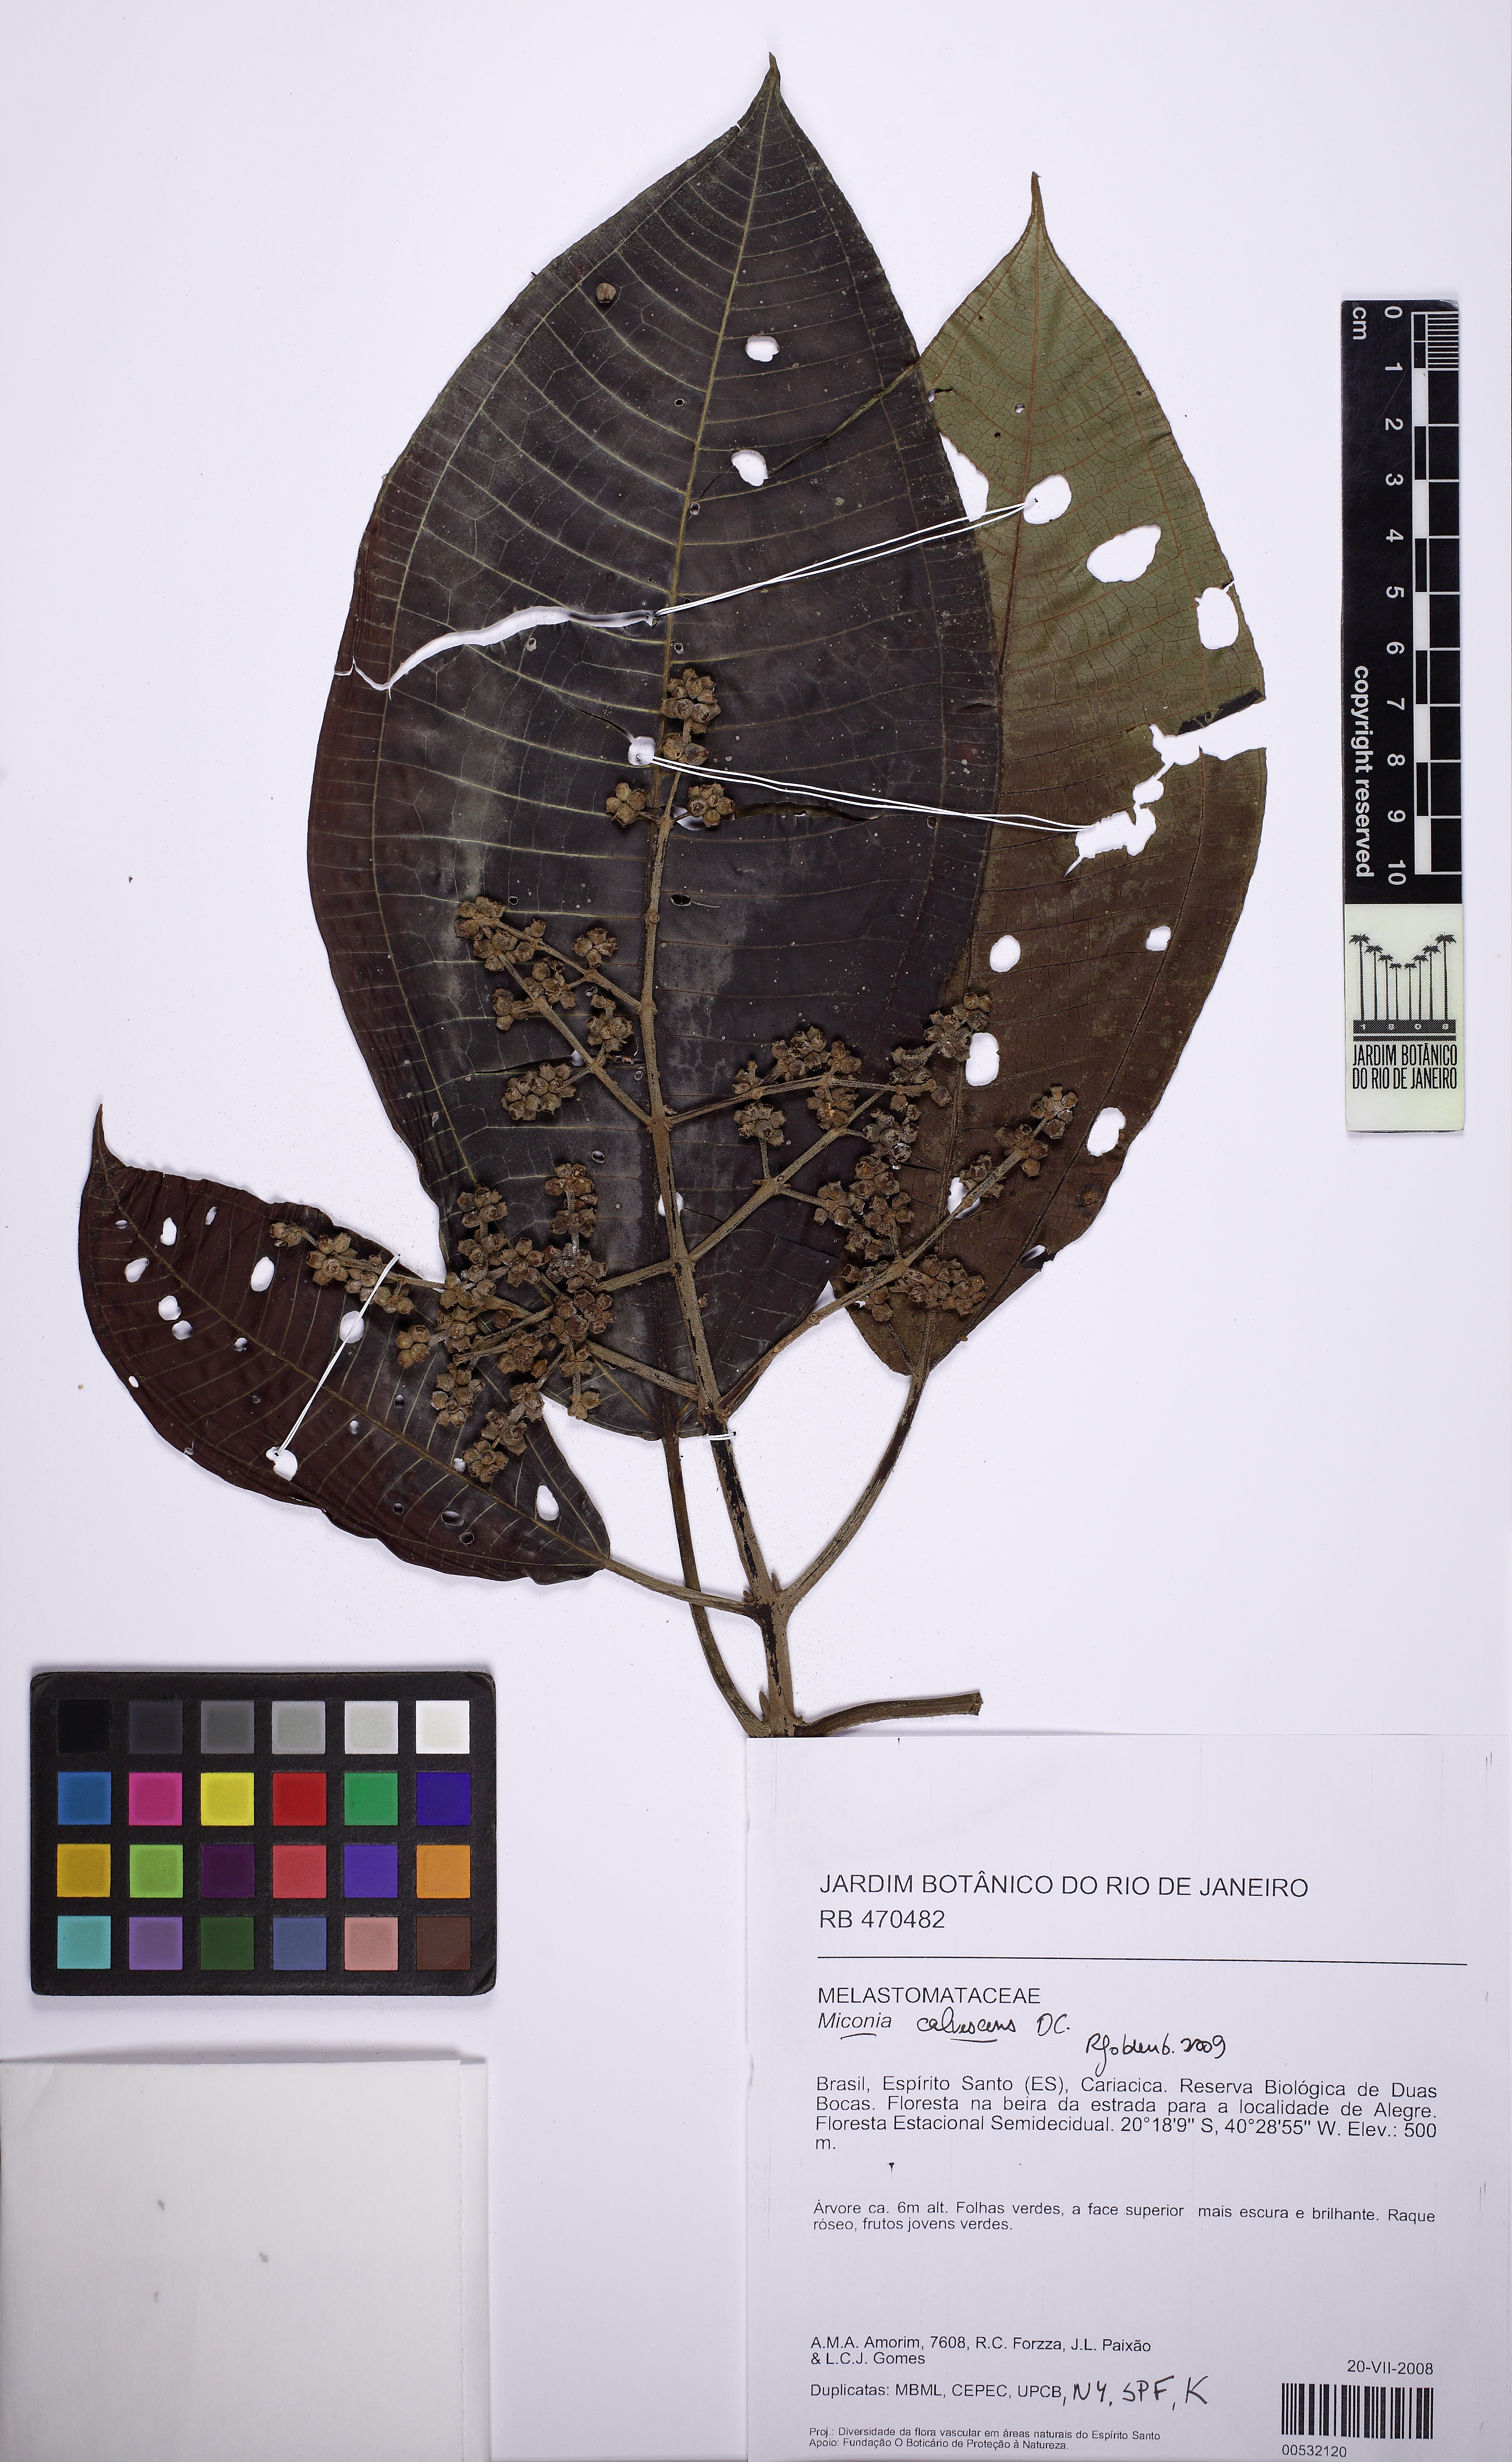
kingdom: Plantae
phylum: Tracheophyta
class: Magnoliopsida
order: Myrtales
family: Melastomataceae
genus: Miconia
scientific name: Miconia calvescens
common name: Purple plague
